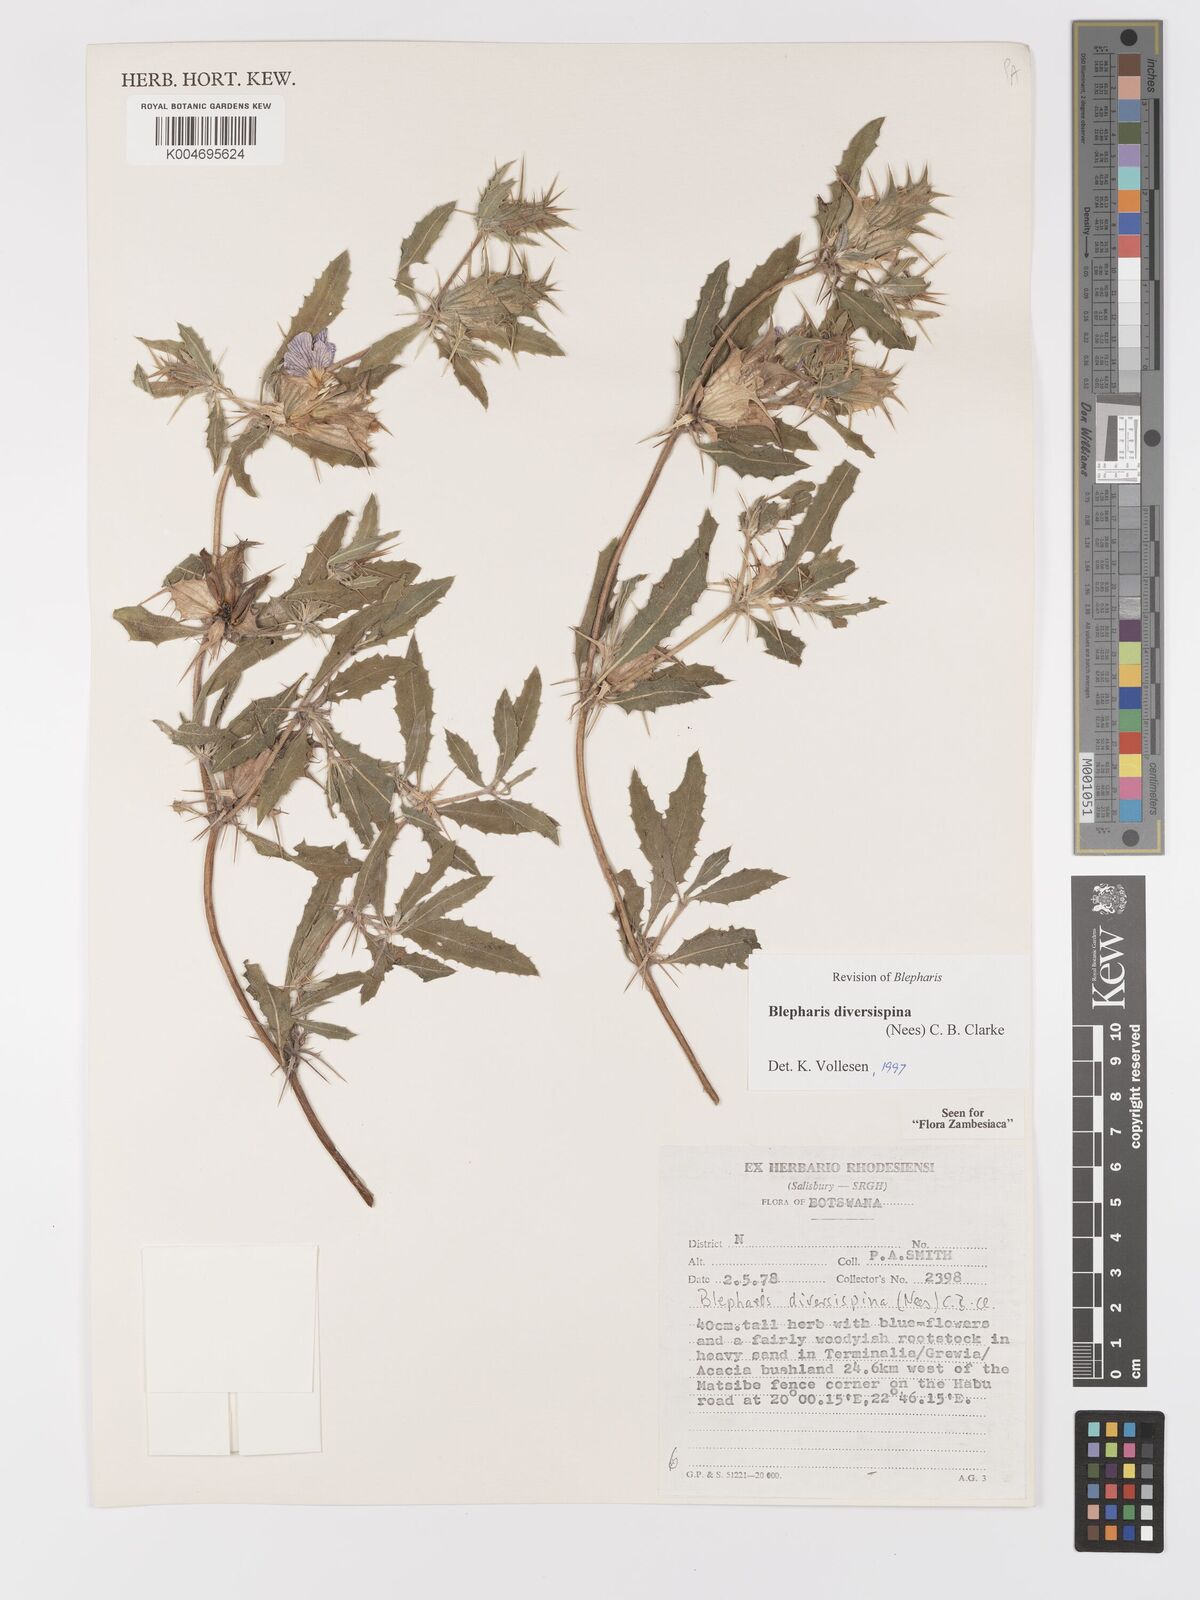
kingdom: Plantae
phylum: Tracheophyta
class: Magnoliopsida
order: Lamiales
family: Acanthaceae
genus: Blepharis
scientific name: Blepharis diversispina
